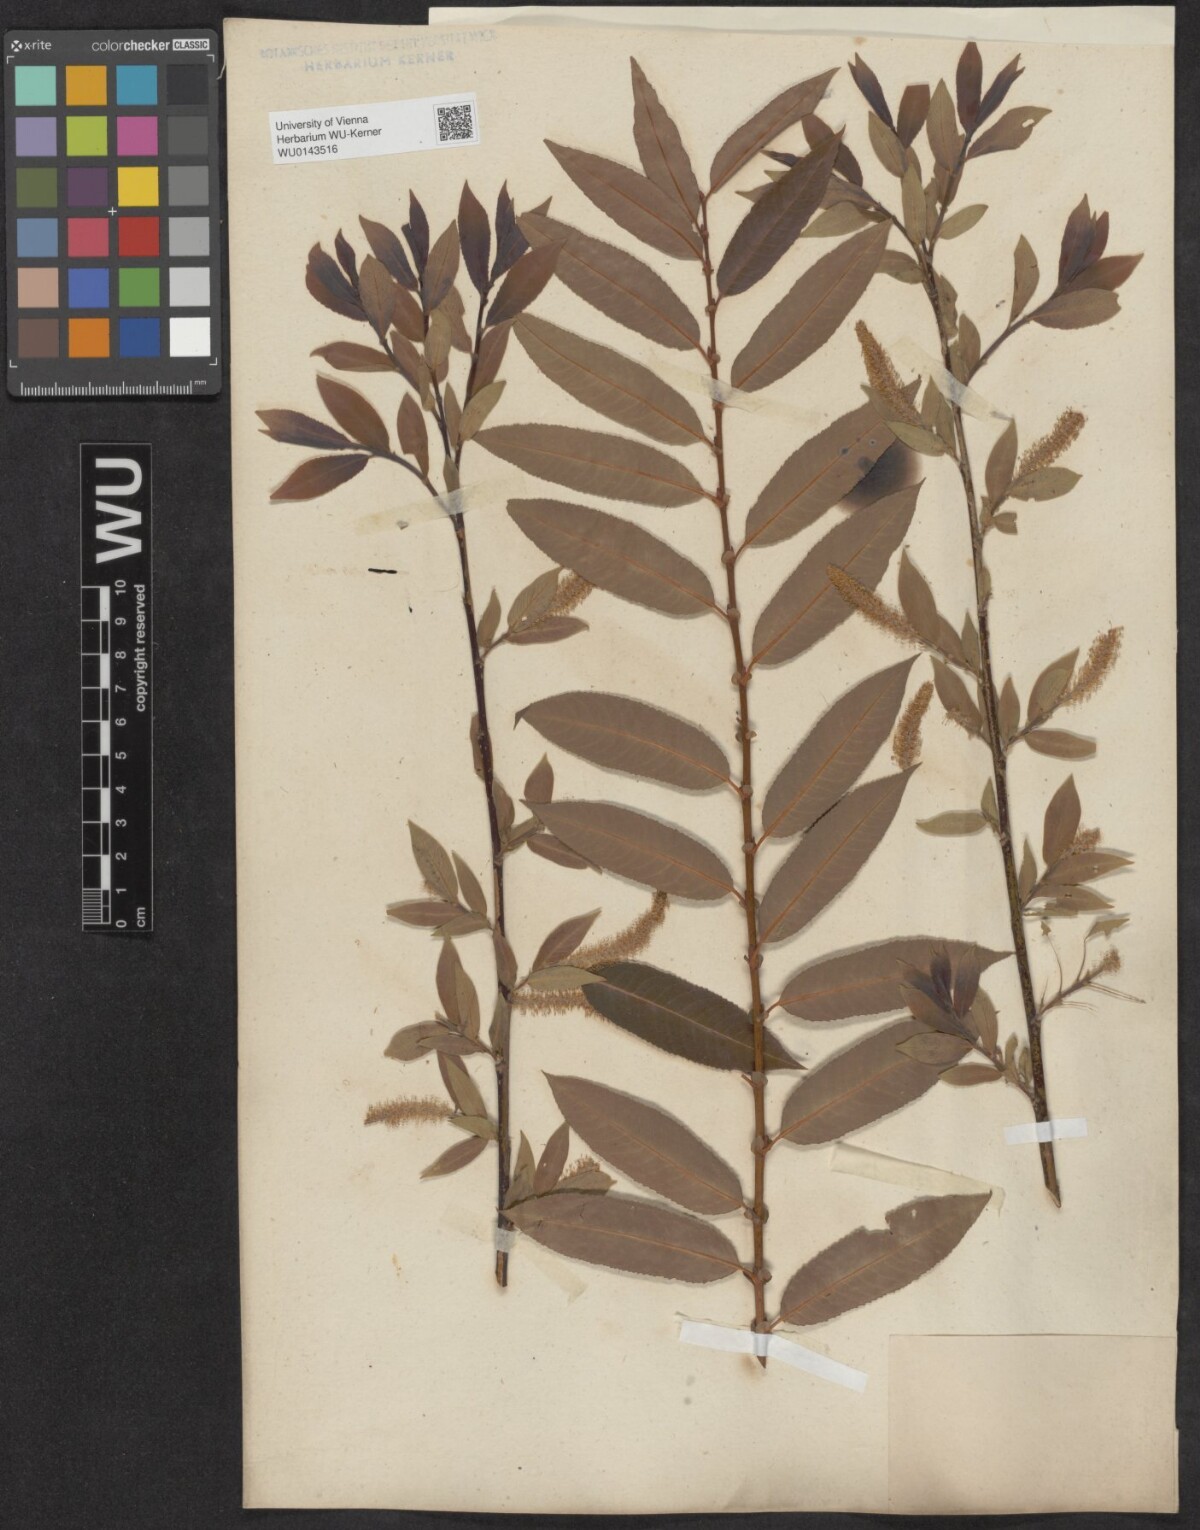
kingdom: Plantae
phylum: Tracheophyta
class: Magnoliopsida
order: Malpighiales
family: Salicaceae
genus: Salix
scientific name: Salix triandra
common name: Almond willow
